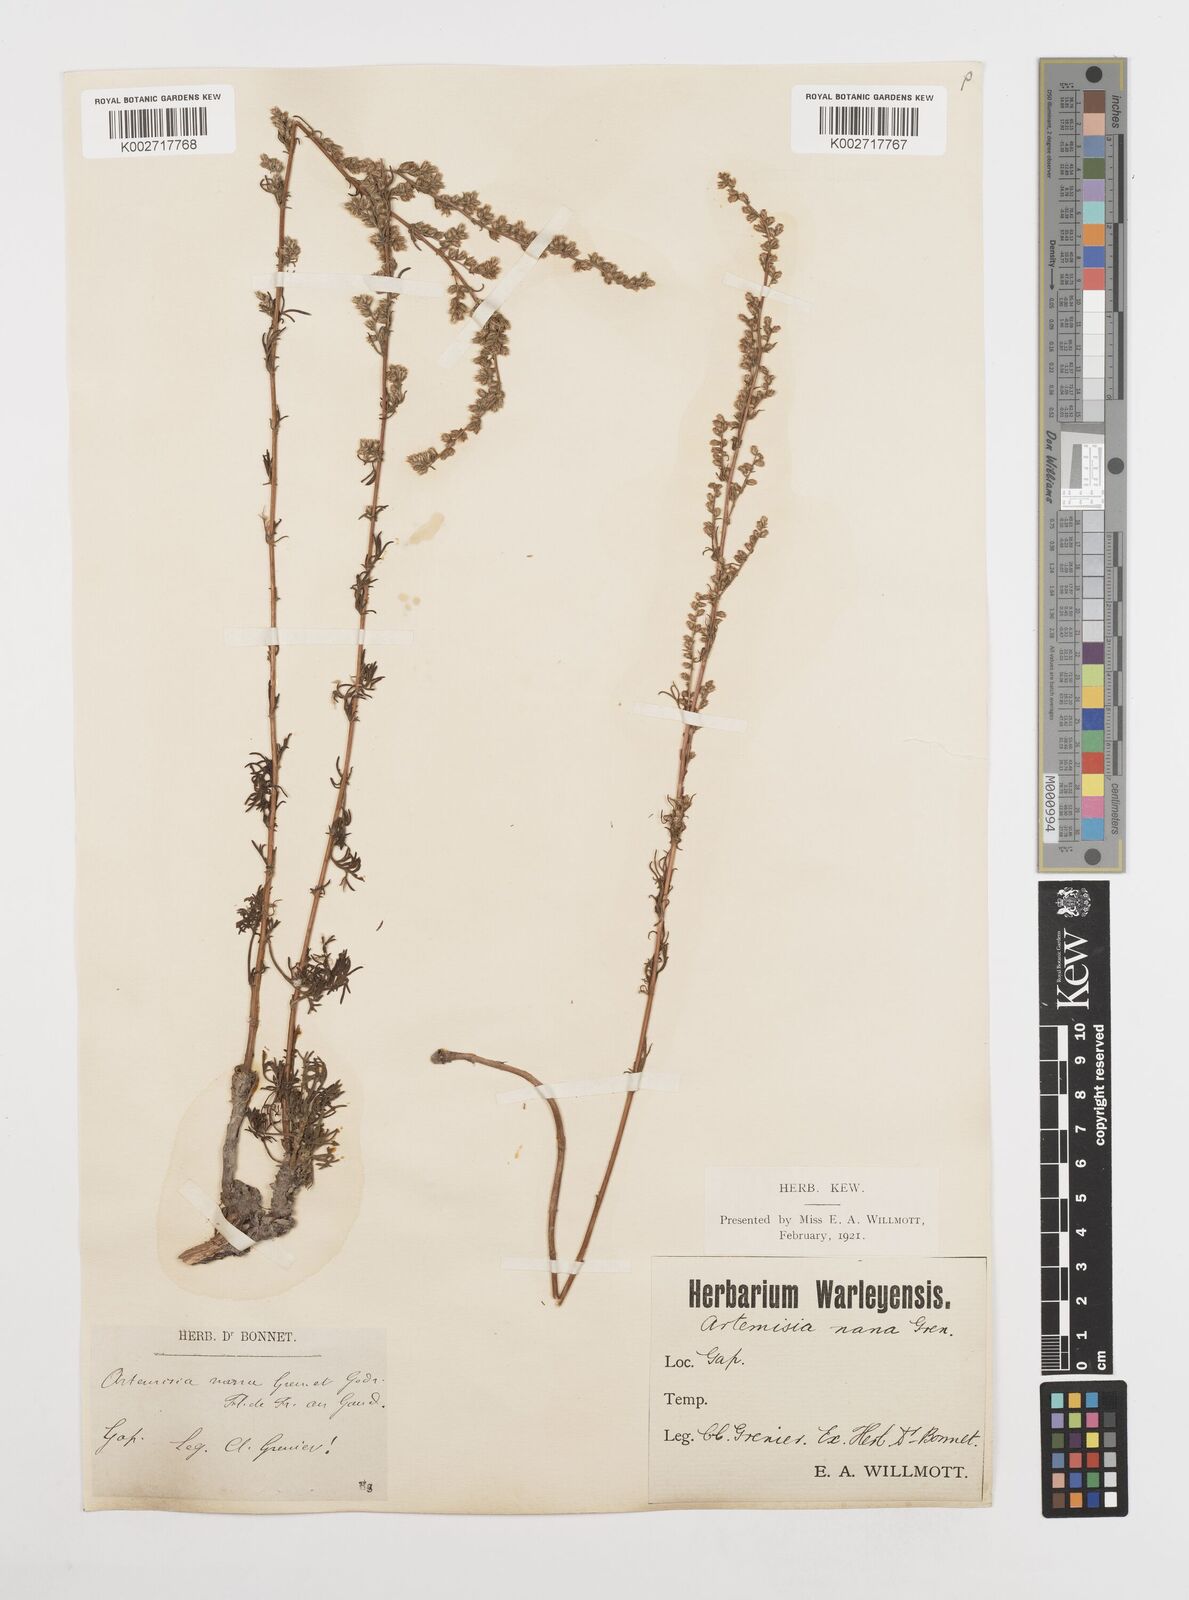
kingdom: Plantae
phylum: Tracheophyta
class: Magnoliopsida
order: Asterales
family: Asteraceae
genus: Artemisia
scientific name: Artemisia campestris
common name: Field wormwood
